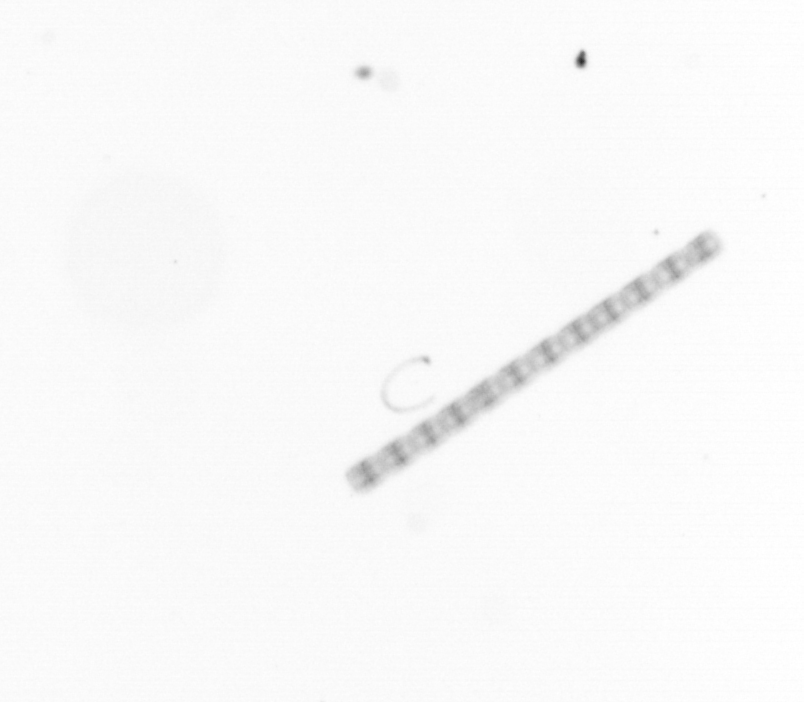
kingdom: Chromista
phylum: Ochrophyta
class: Bacillariophyceae
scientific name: Bacillariophyceae
